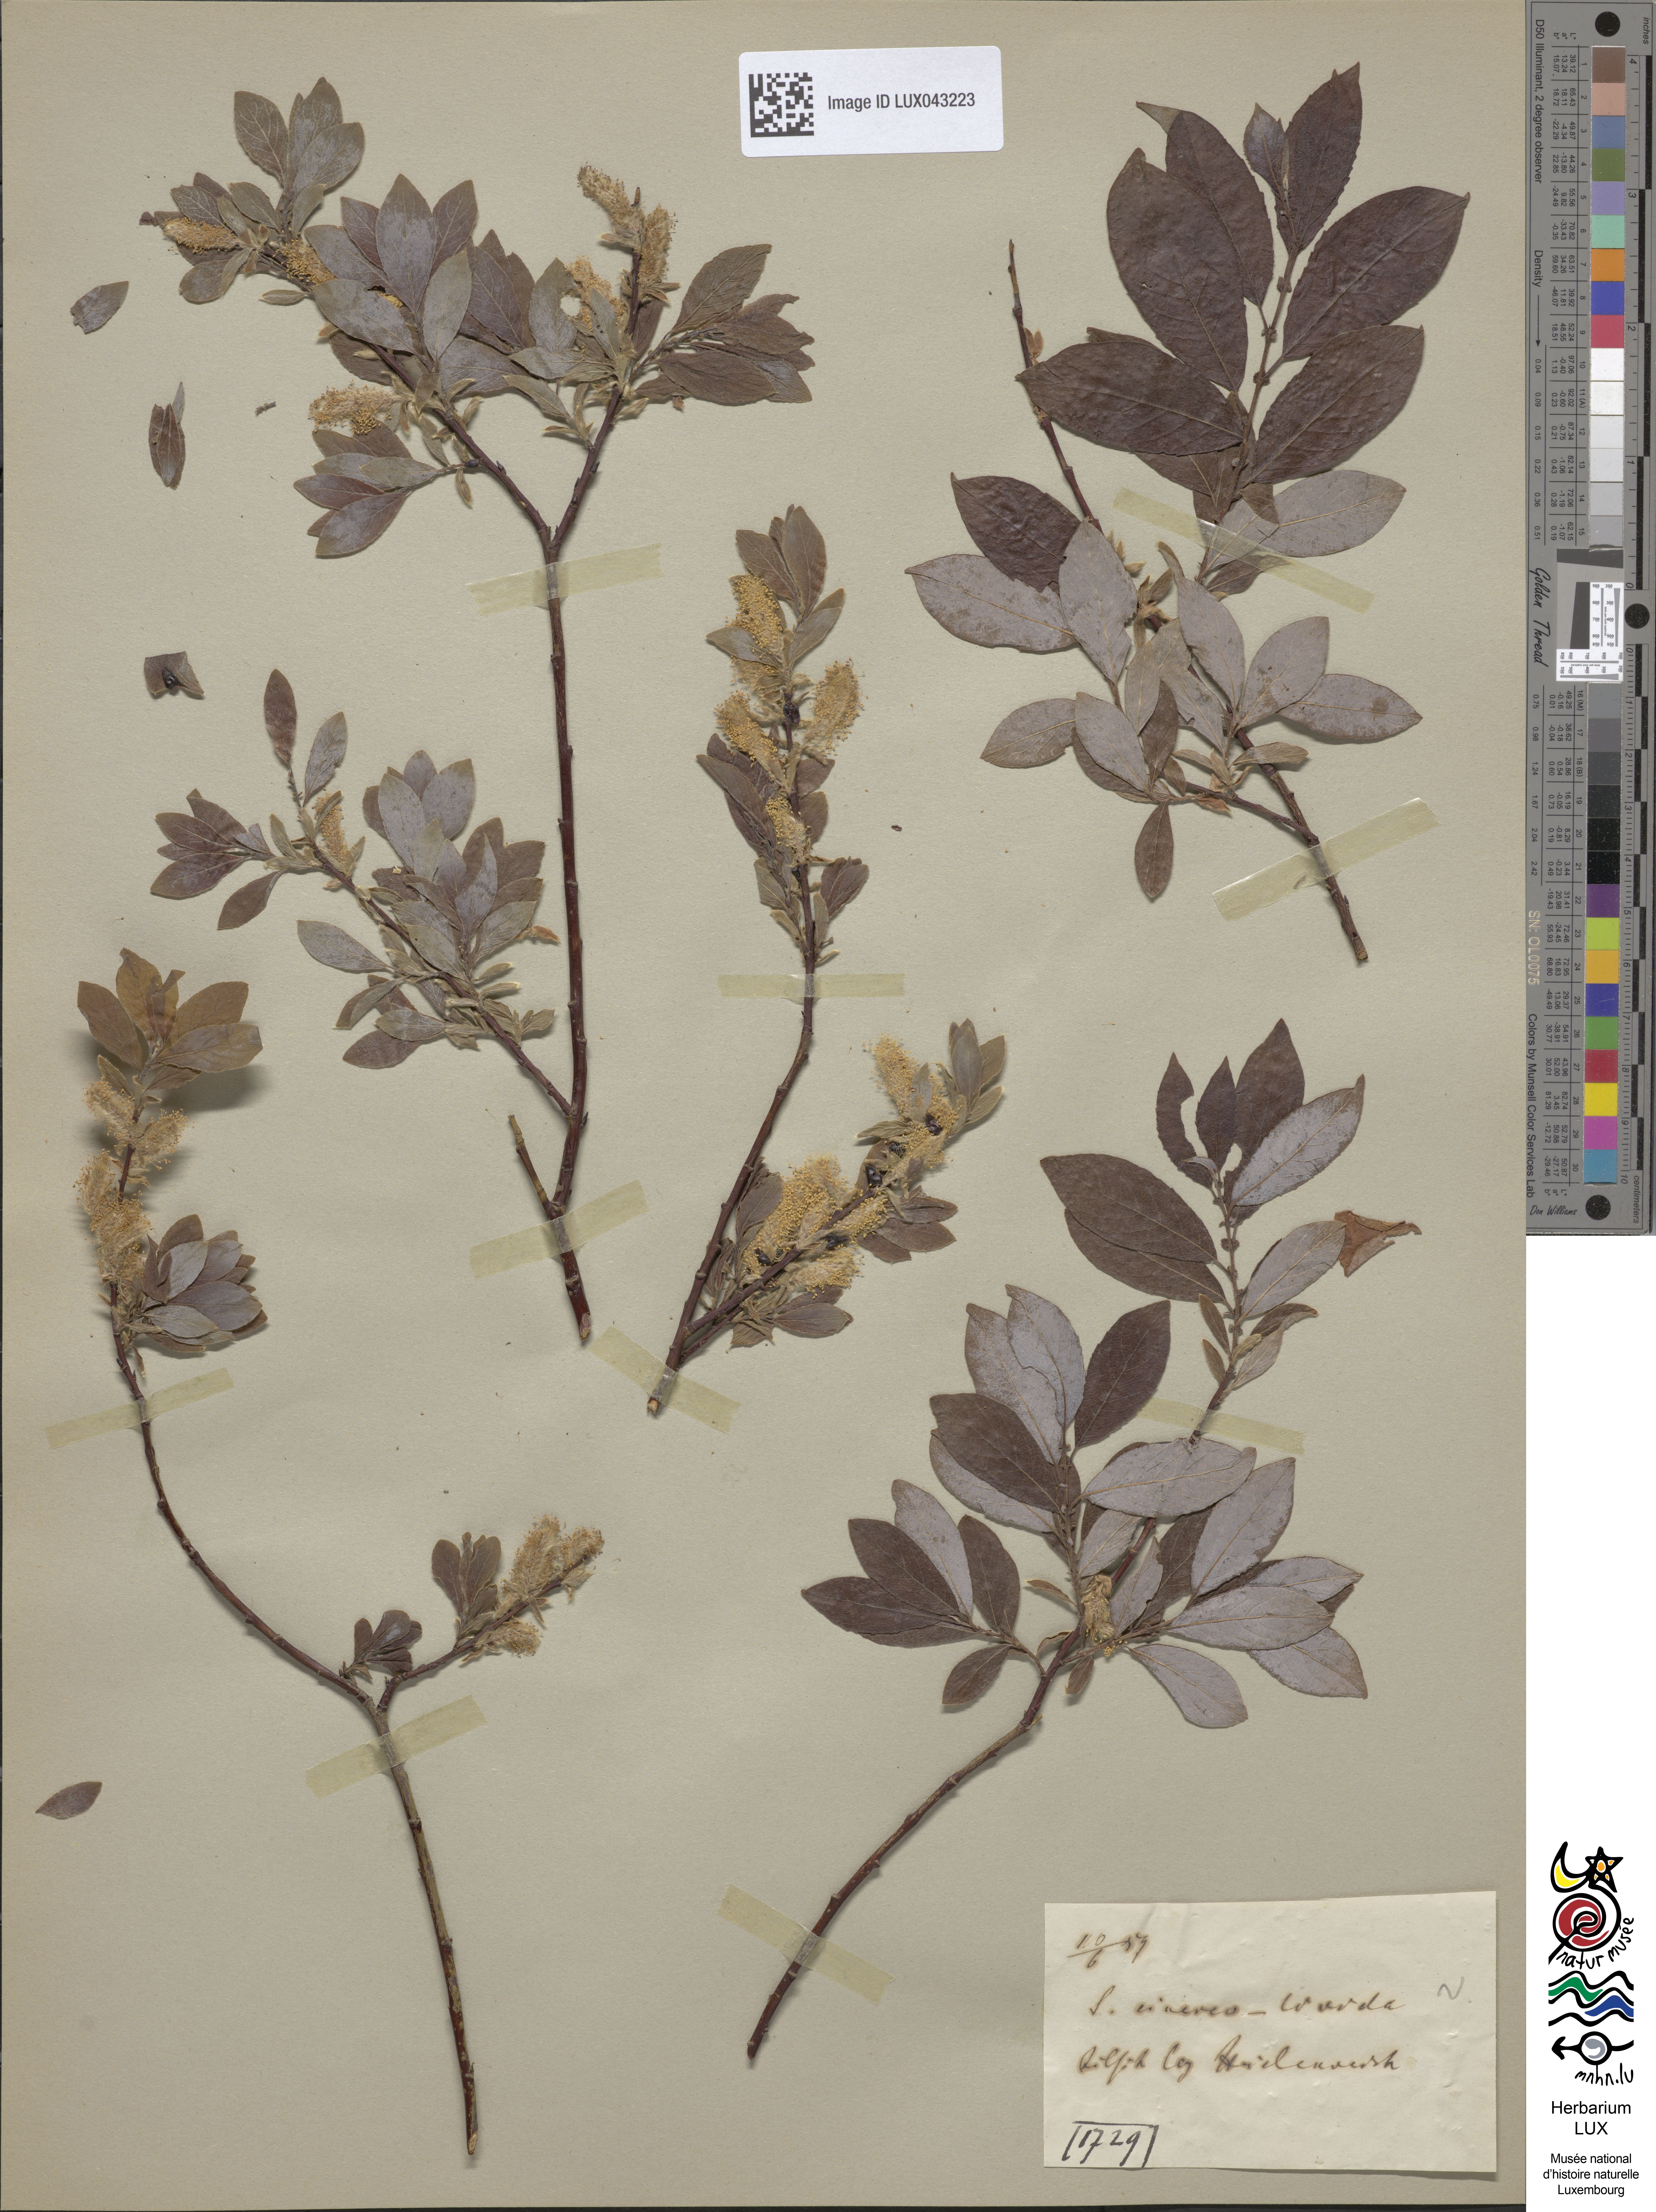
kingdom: Plantae
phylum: Tracheophyta
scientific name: Tracheophyta
